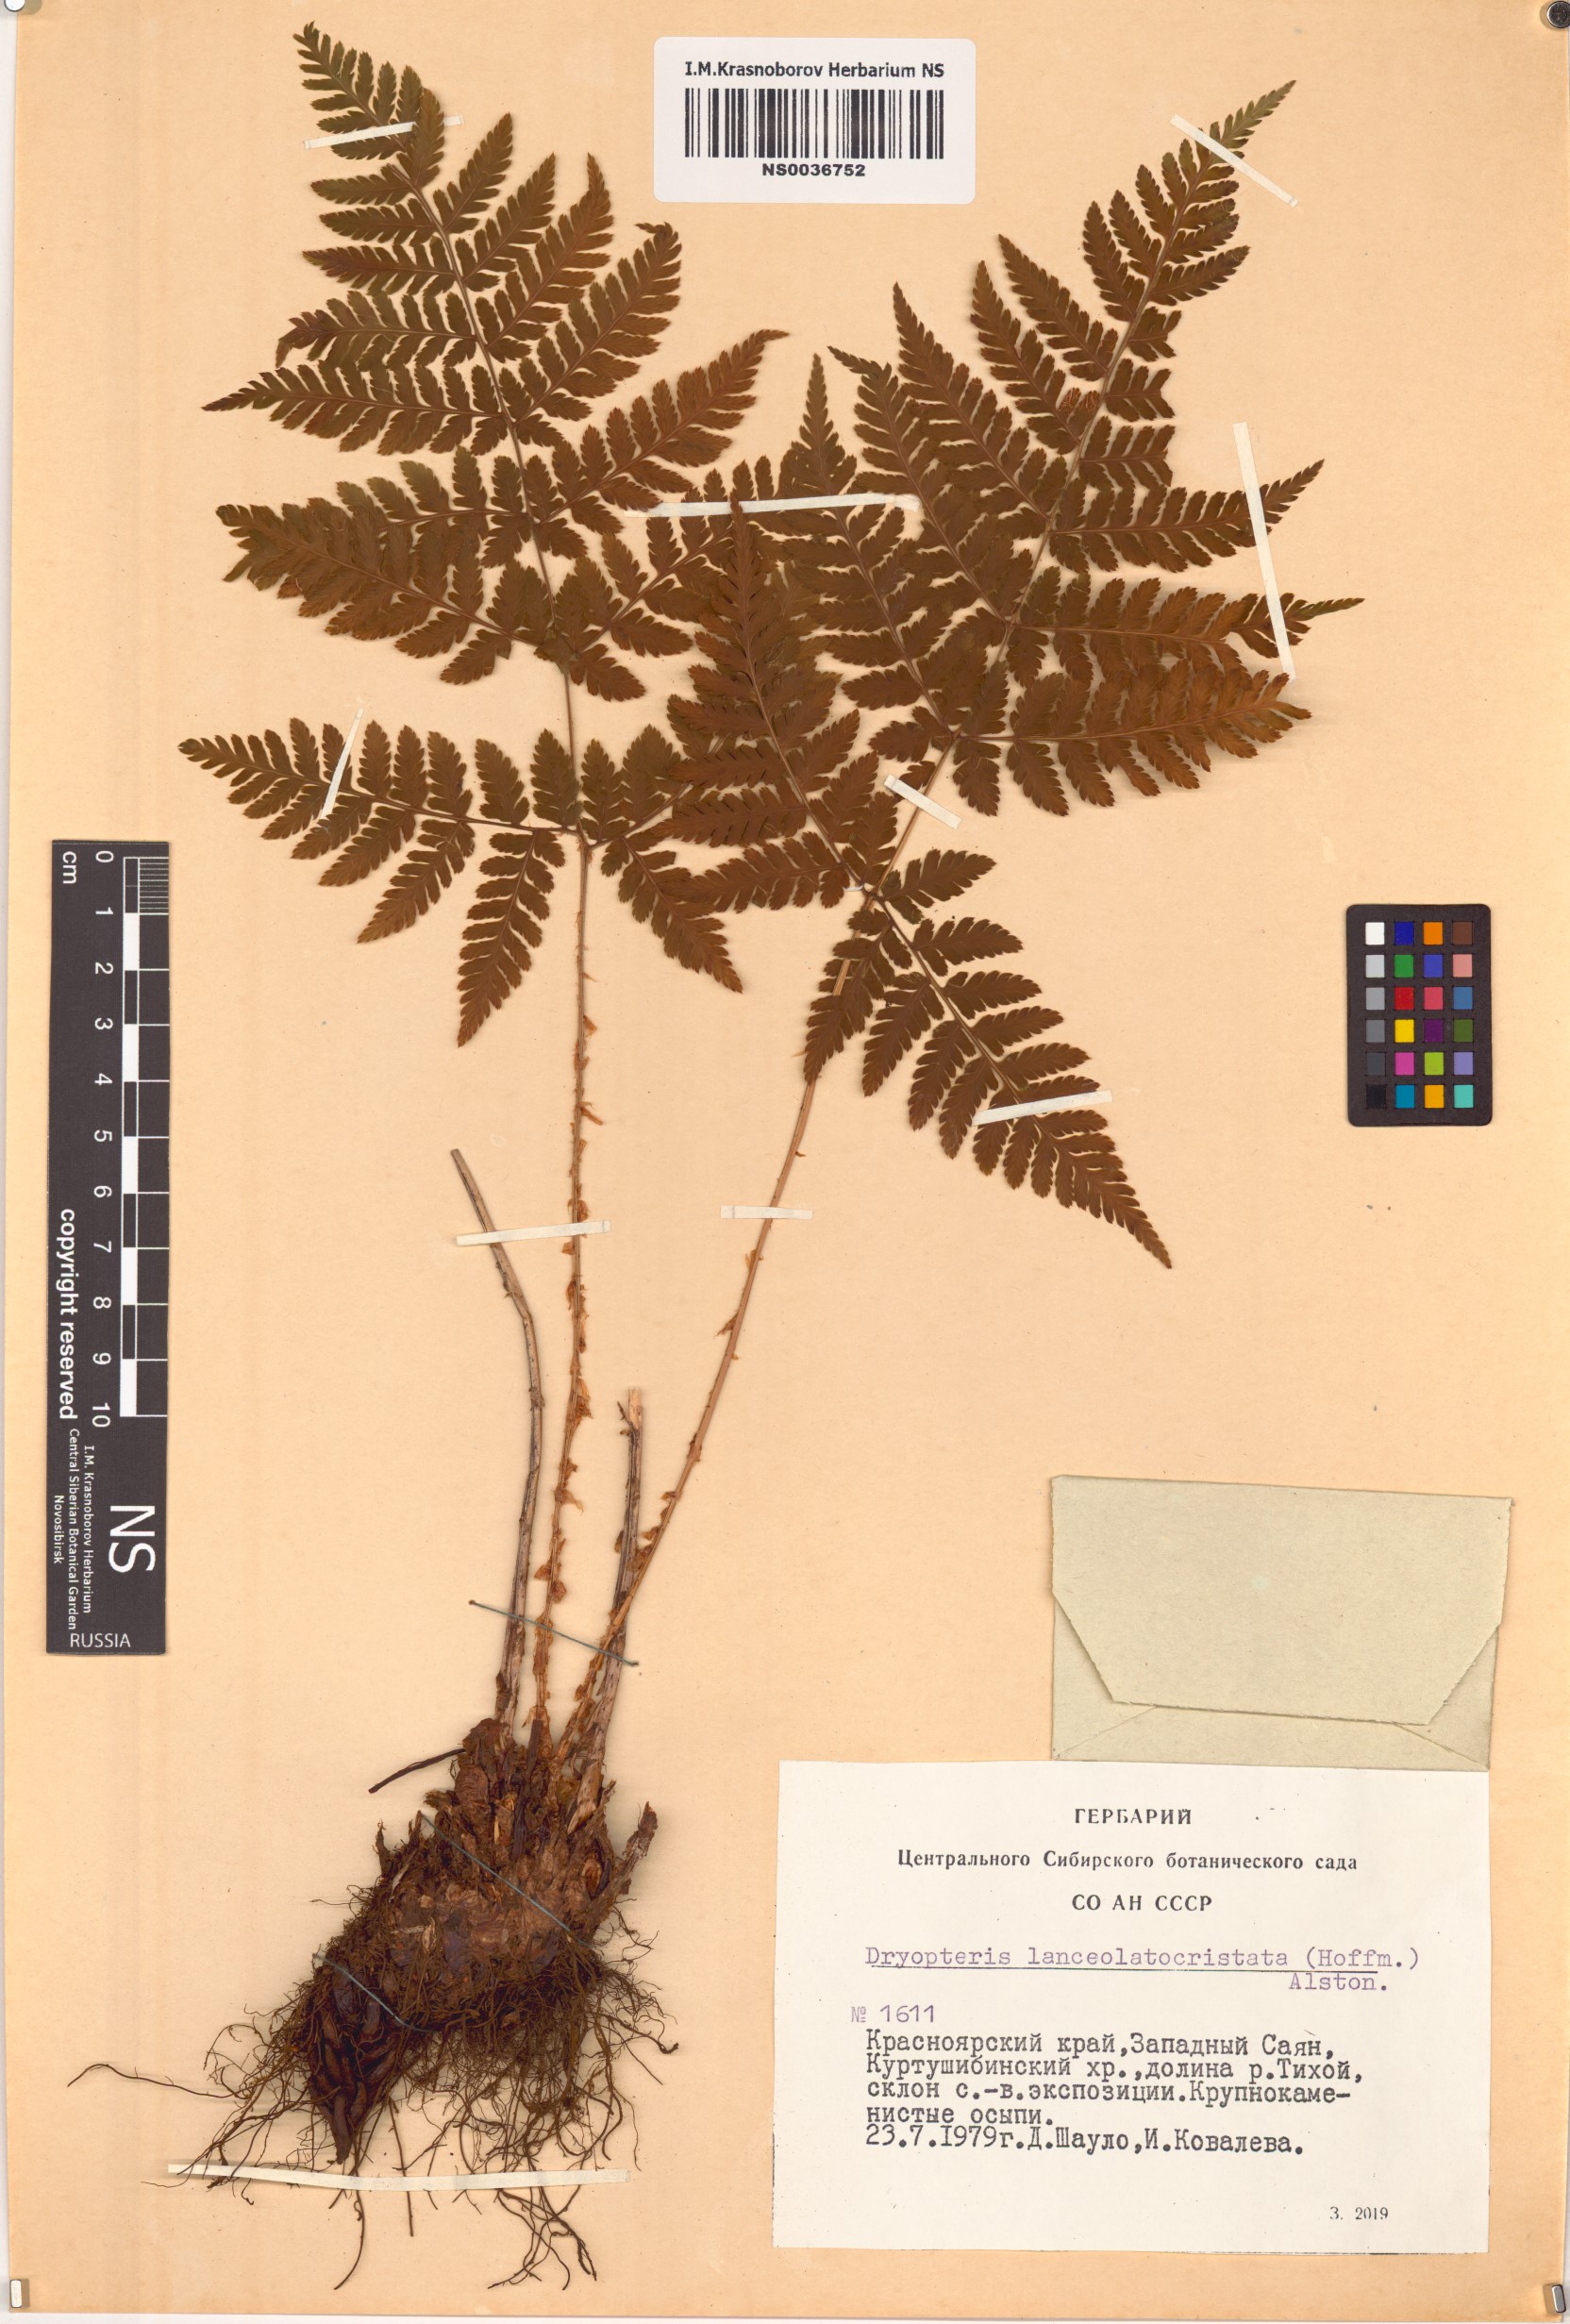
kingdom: Plantae
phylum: Tracheophyta
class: Polypodiopsida
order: Polypodiales
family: Dryopteridaceae
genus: Dryopteris
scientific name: Dryopteris carthusiana
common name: Narrow buckler-fern
